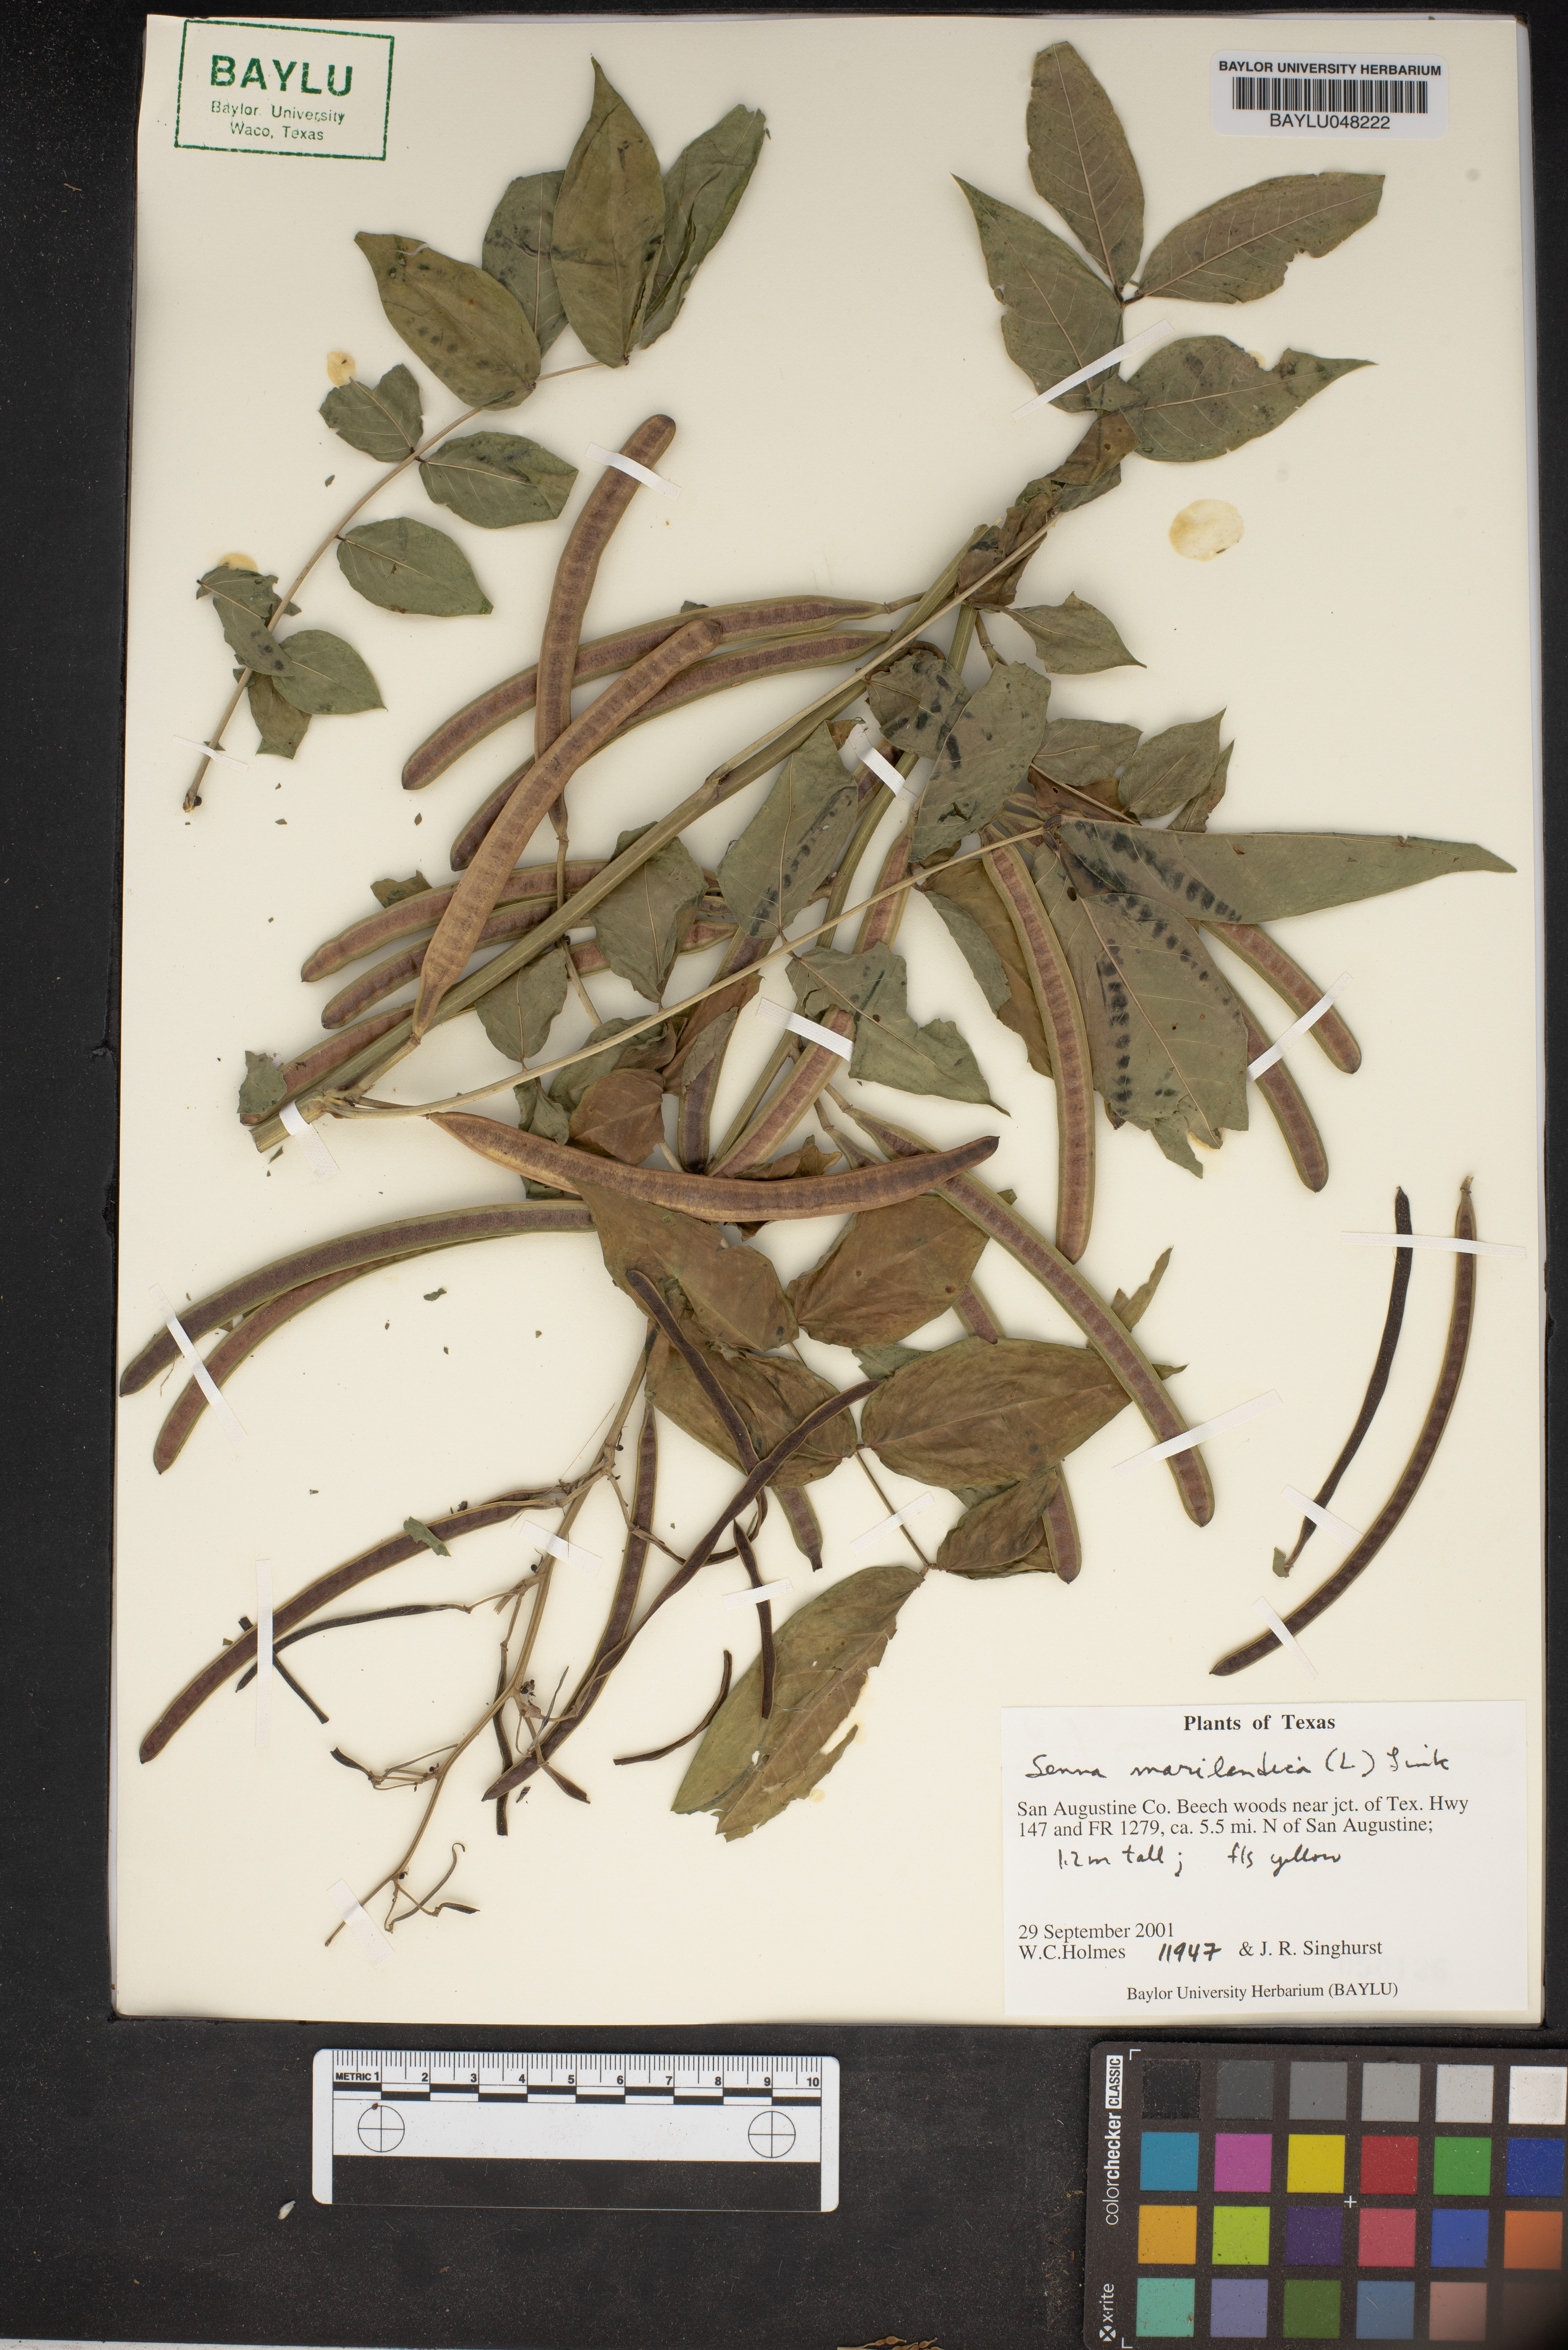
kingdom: Plantae
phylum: Tracheophyta
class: Magnoliopsida
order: Fabales
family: Fabaceae
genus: Senna
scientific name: Senna marilandica
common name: American senna
